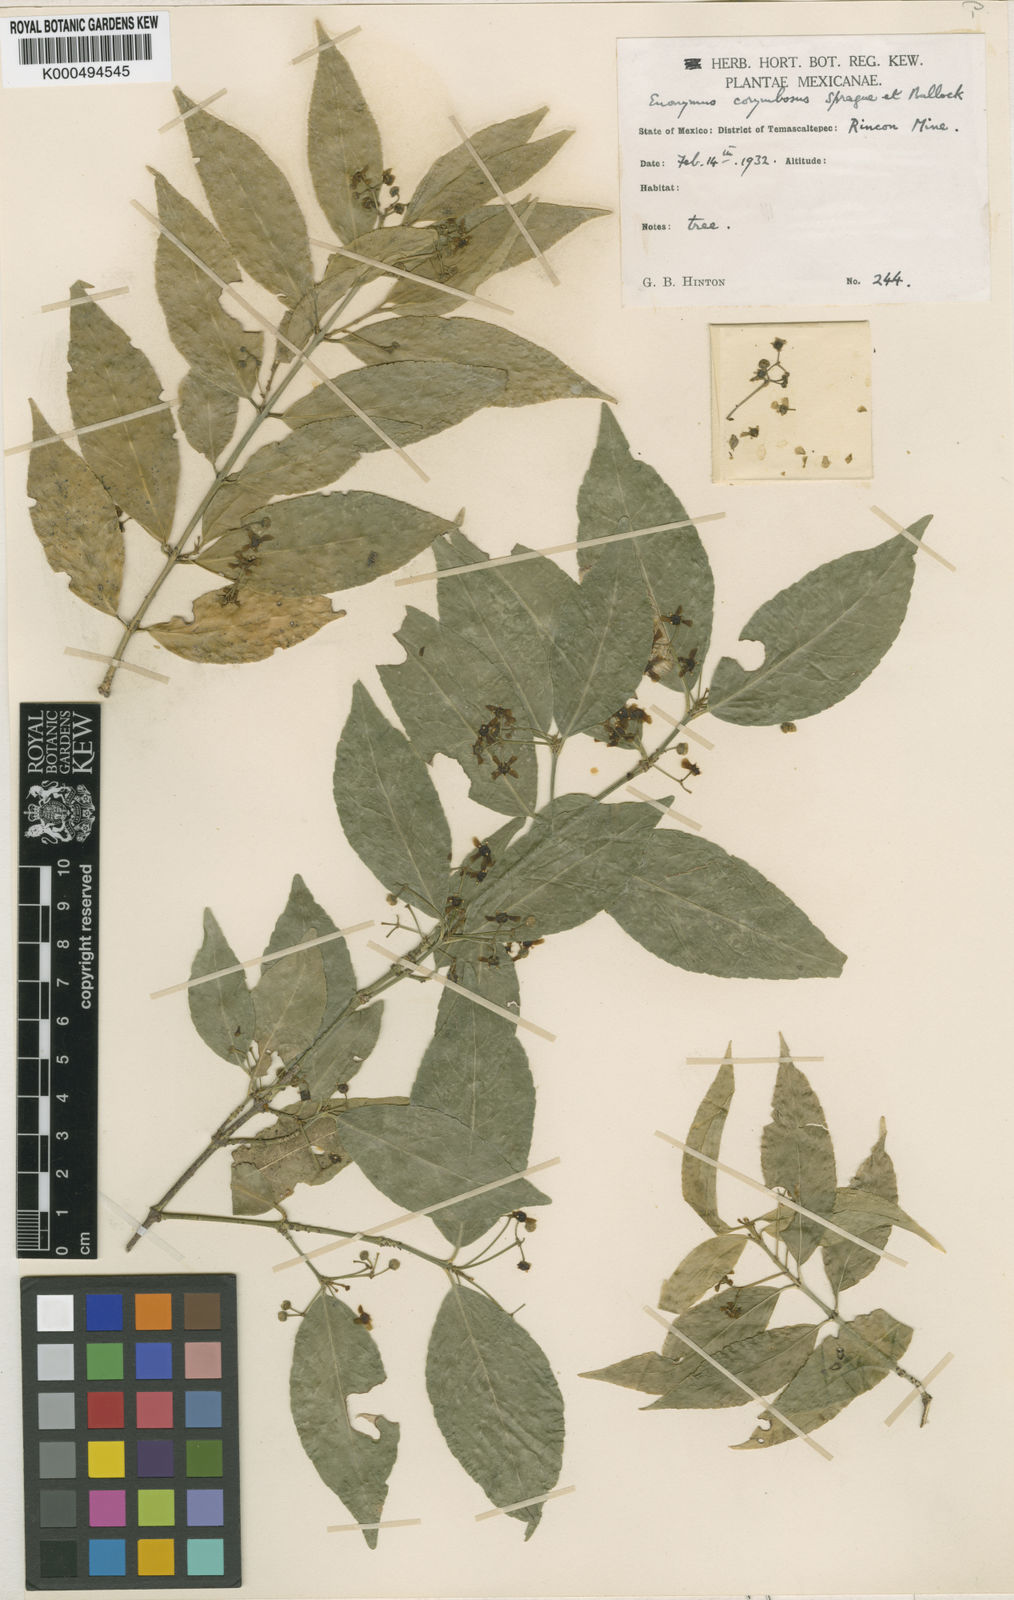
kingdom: Plantae
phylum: Tracheophyta
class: Magnoliopsida
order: Celastrales
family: Celastraceae
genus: Euonymus
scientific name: Euonymus corymbosus
